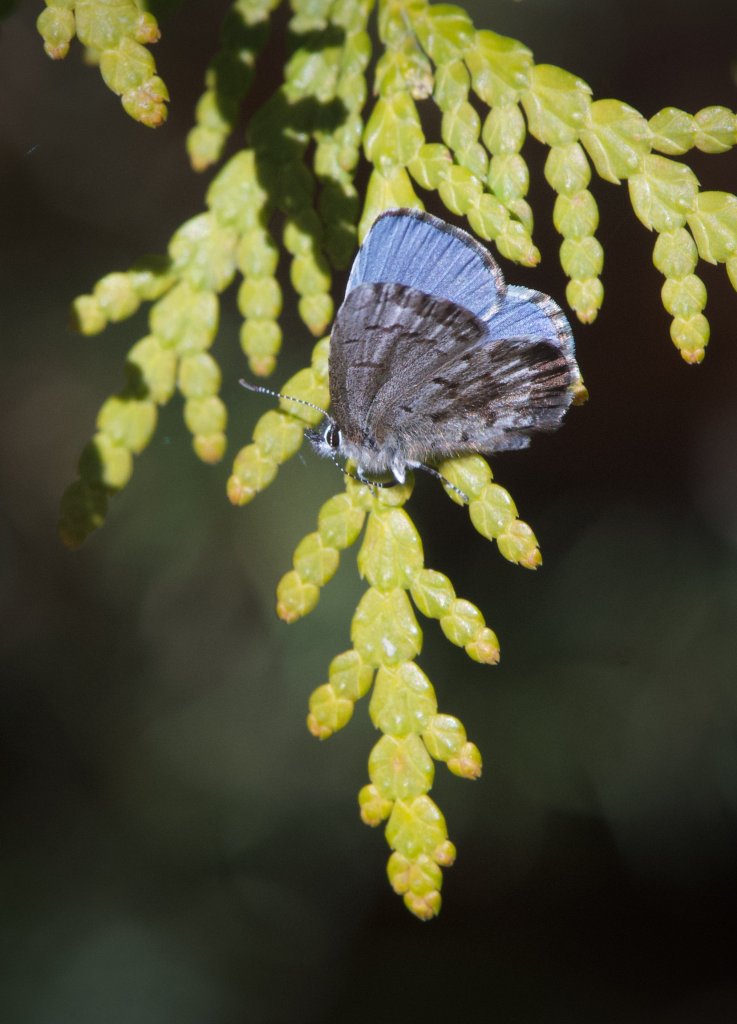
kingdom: Animalia
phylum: Arthropoda
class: Insecta
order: Lepidoptera
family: Lycaenidae
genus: Celastrina
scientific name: Celastrina lucia
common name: Northern Spring Azure
